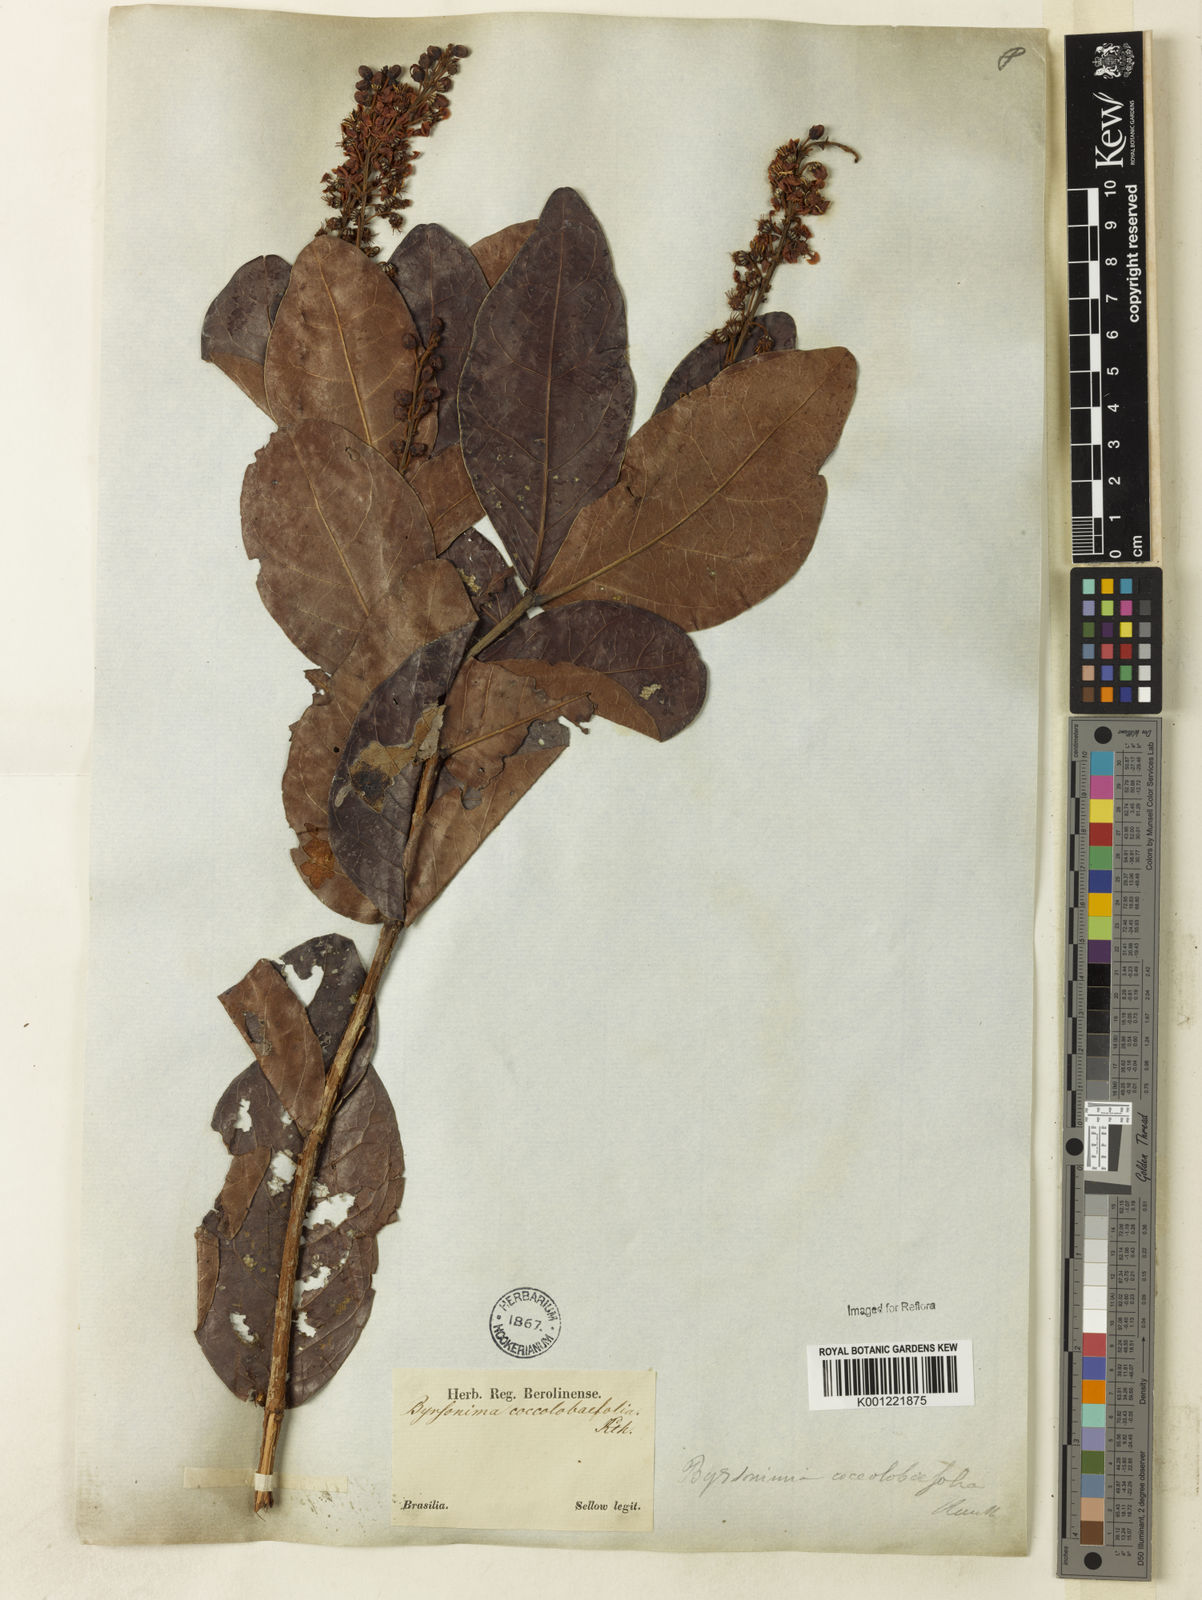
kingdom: Plantae
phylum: Tracheophyta
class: Magnoliopsida
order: Malpighiales
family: Malpighiaceae
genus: Byrsonima
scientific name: Byrsonima coccolobifolia
